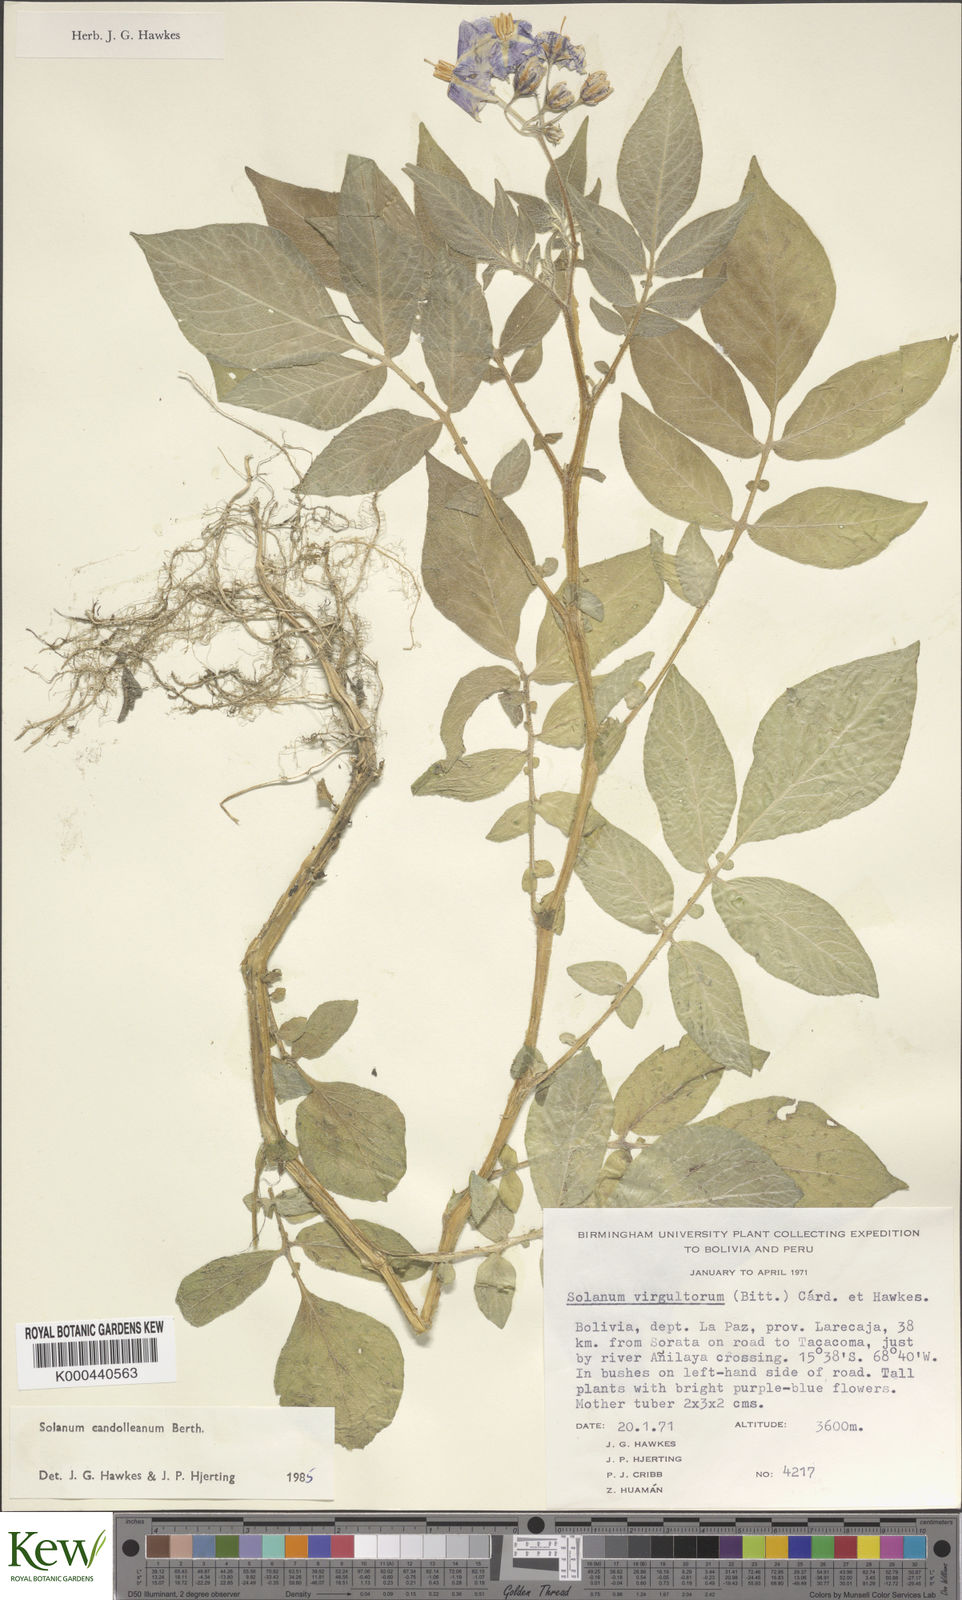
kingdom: Plantae
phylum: Tracheophyta
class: Magnoliopsida
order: Solanales
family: Solanaceae
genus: Solanum
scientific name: Solanum brevicaule
